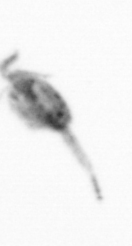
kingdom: Animalia
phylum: Arthropoda
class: Copepoda
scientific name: Copepoda
